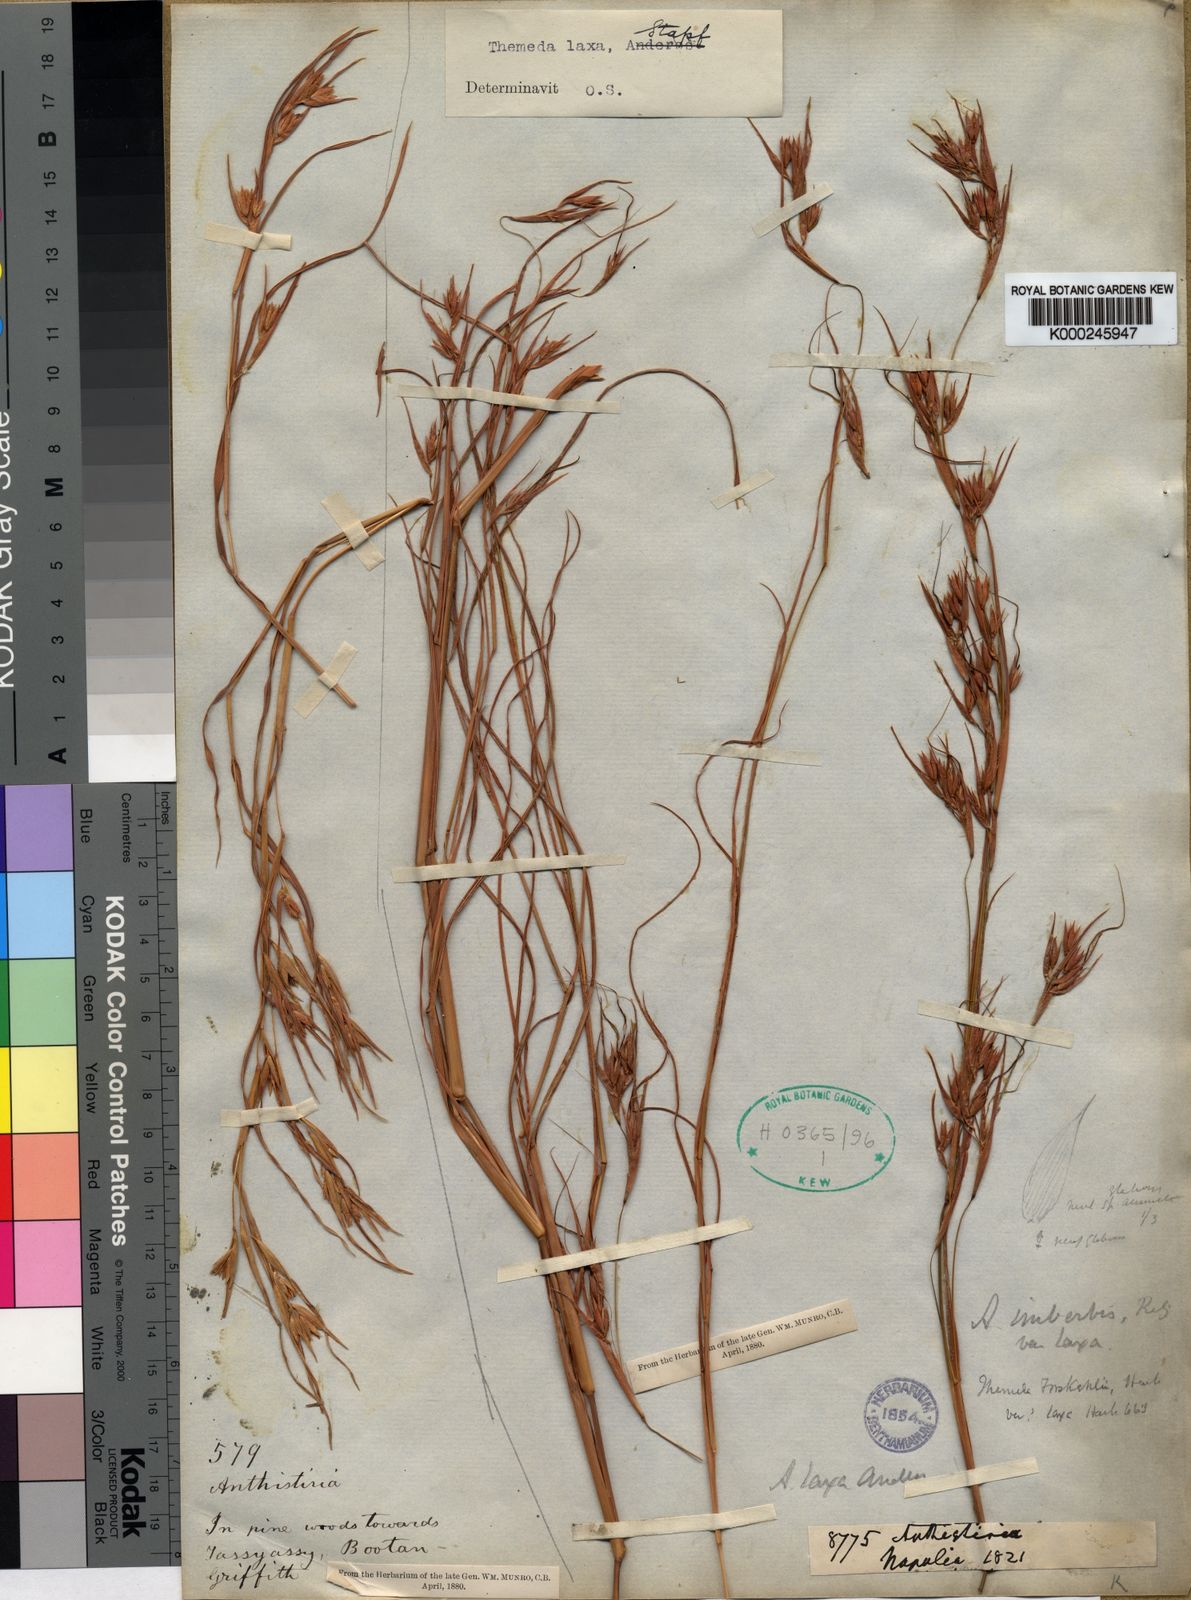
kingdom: Plantae
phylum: Tracheophyta
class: Liliopsida
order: Poales
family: Poaceae
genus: Themeda
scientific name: Themeda triandra
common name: Kangaroo grass
